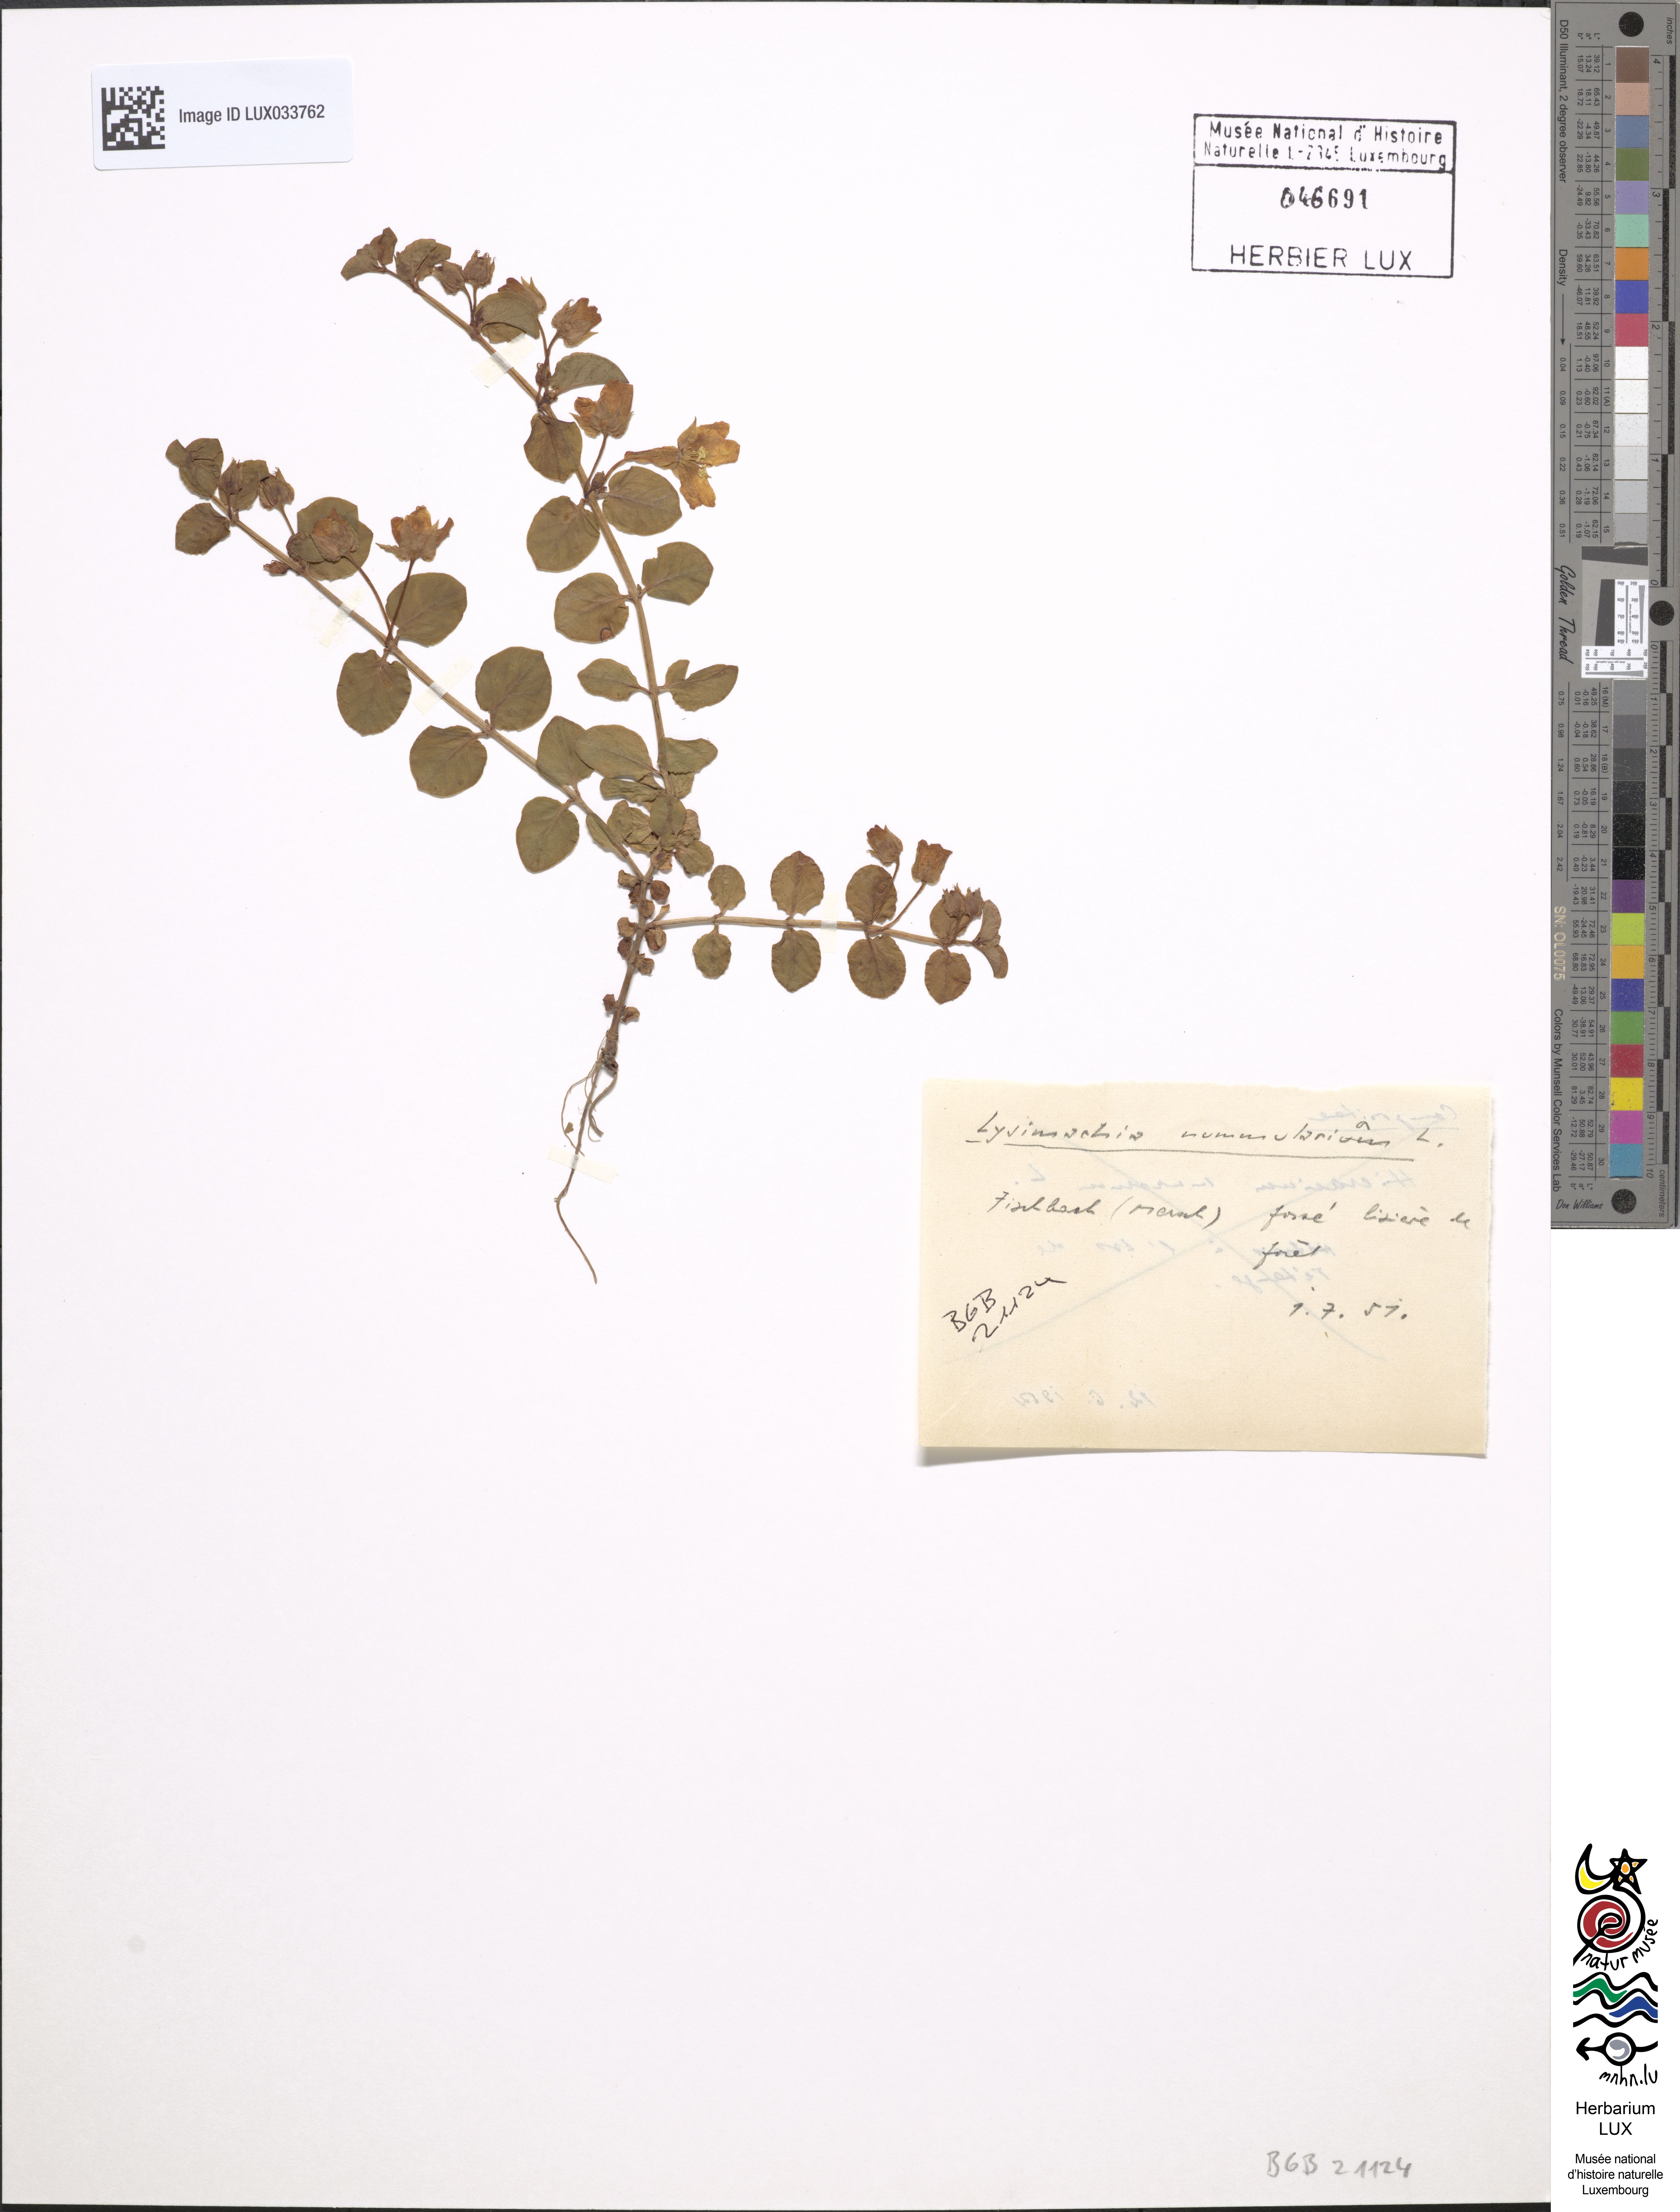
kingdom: Plantae
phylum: Tracheophyta
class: Magnoliopsida
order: Ericales
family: Primulaceae
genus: Lysimachia
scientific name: Lysimachia nummularia
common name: Moneywort
